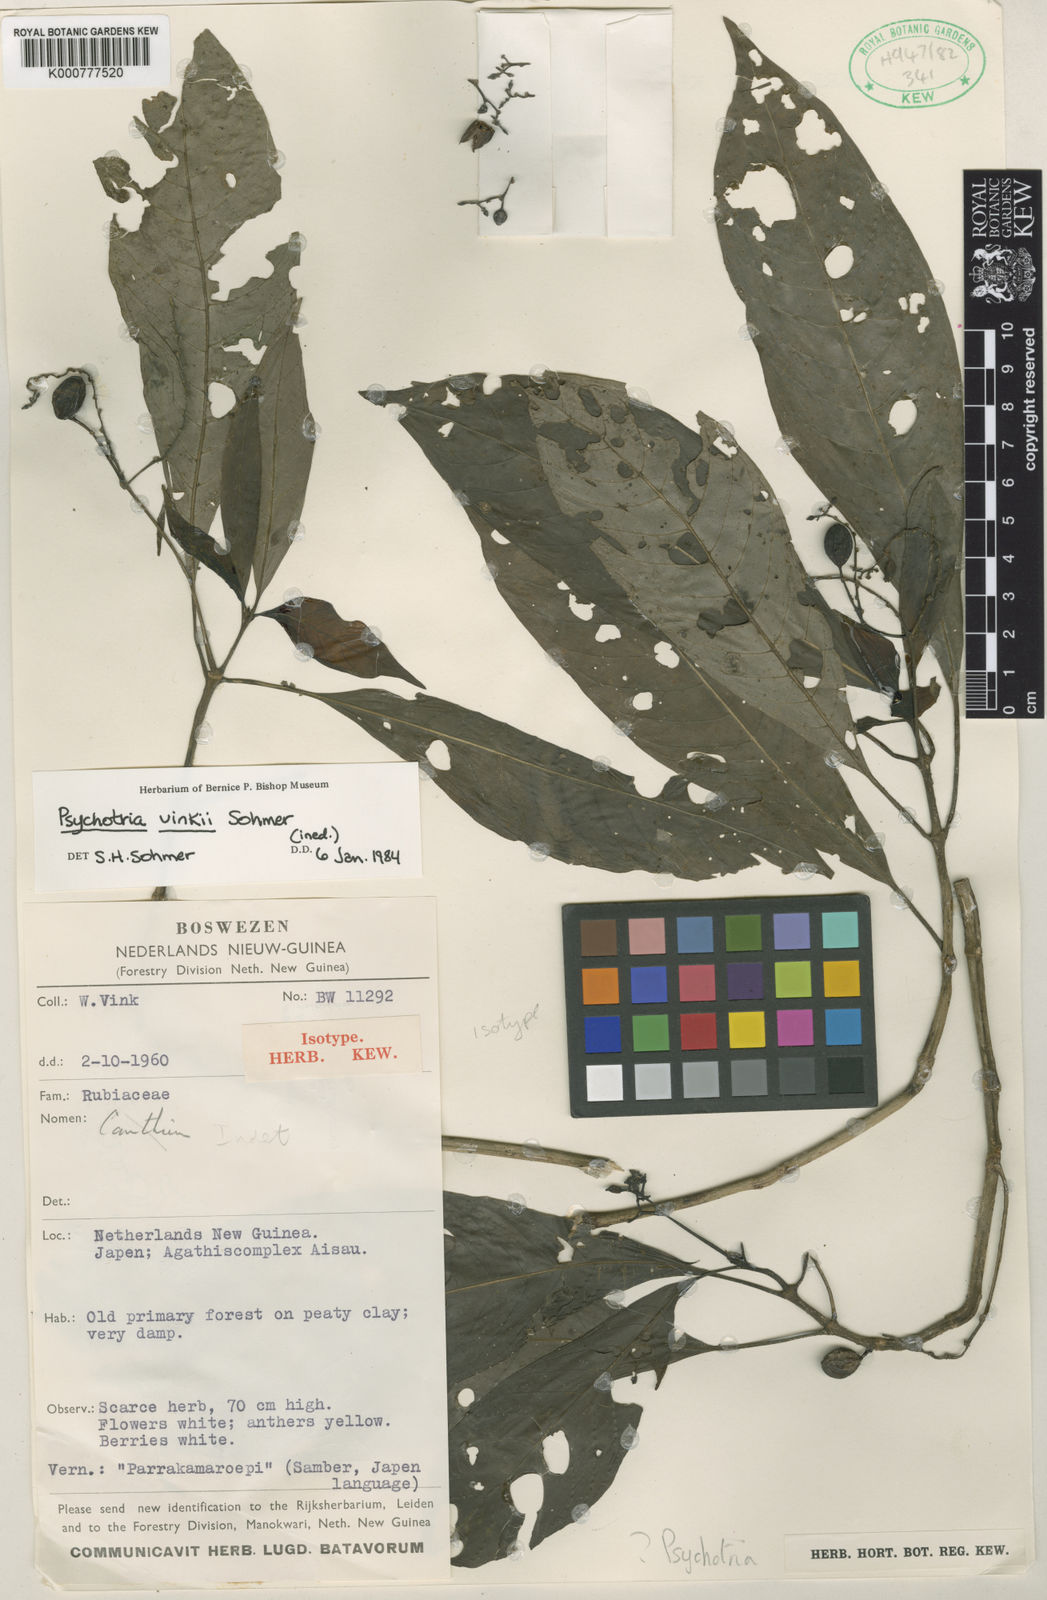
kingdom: Plantae
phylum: Tracheophyta
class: Magnoliopsida
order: Gentianales
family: Rubiaceae
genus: Psychotria
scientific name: Psychotria vinkii
